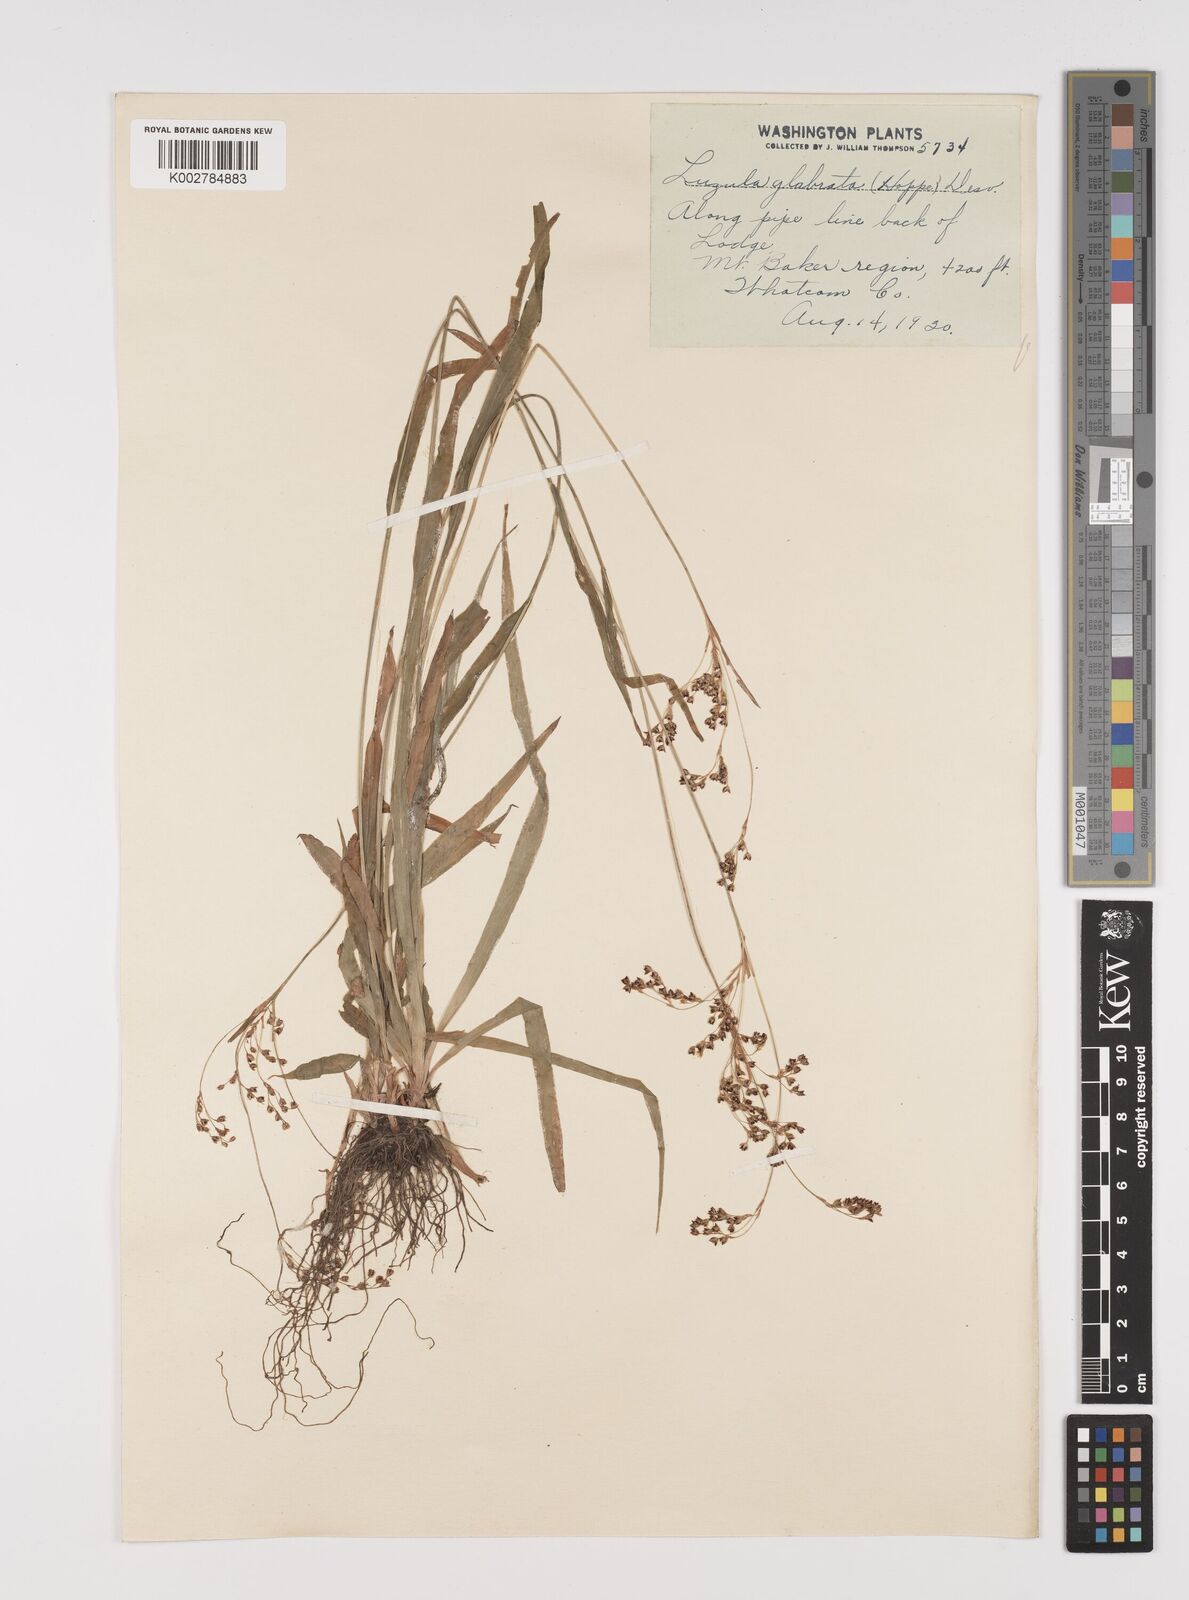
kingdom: Plantae
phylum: Tracheophyta
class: Liliopsida
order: Poales
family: Juncaceae
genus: Luzula
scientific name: Luzula glabrata
